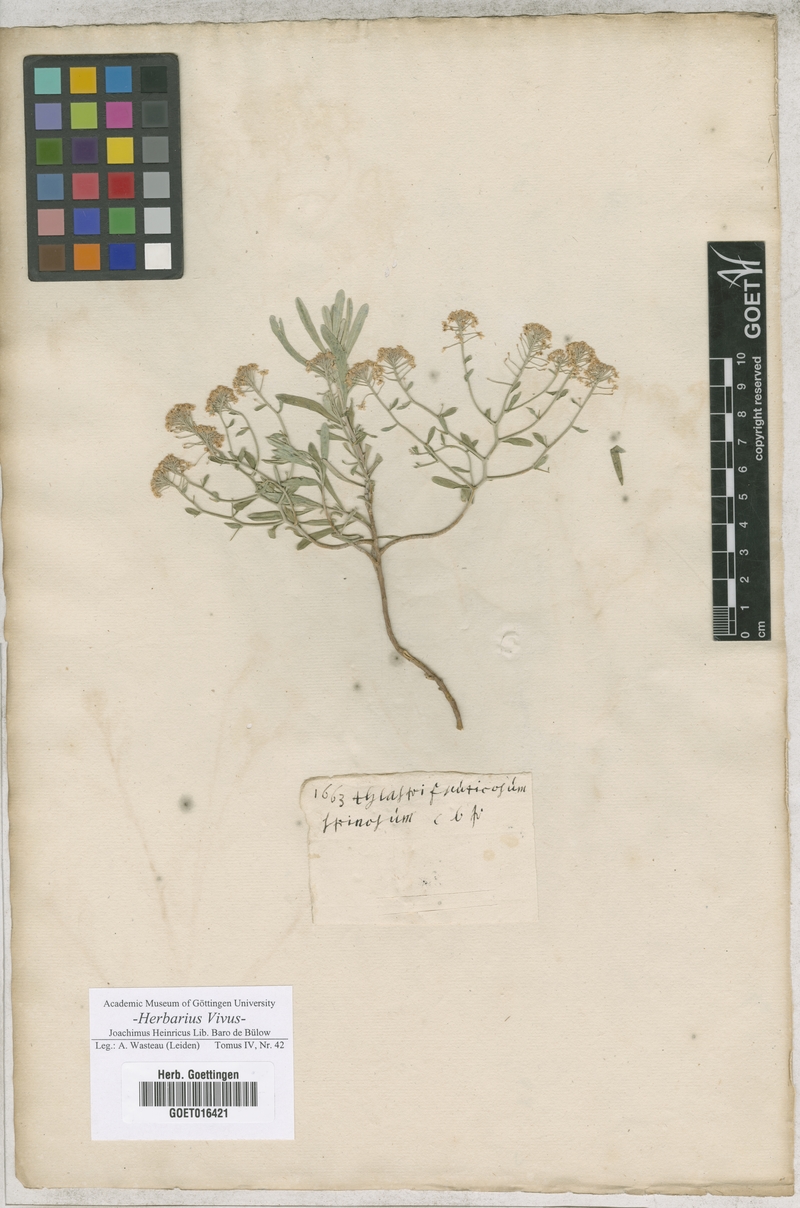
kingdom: Plantae
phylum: Tracheophyta
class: Magnoliopsida
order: Brassicales
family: Brassicaceae
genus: Hormathophylla
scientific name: Hormathophylla spinosa
